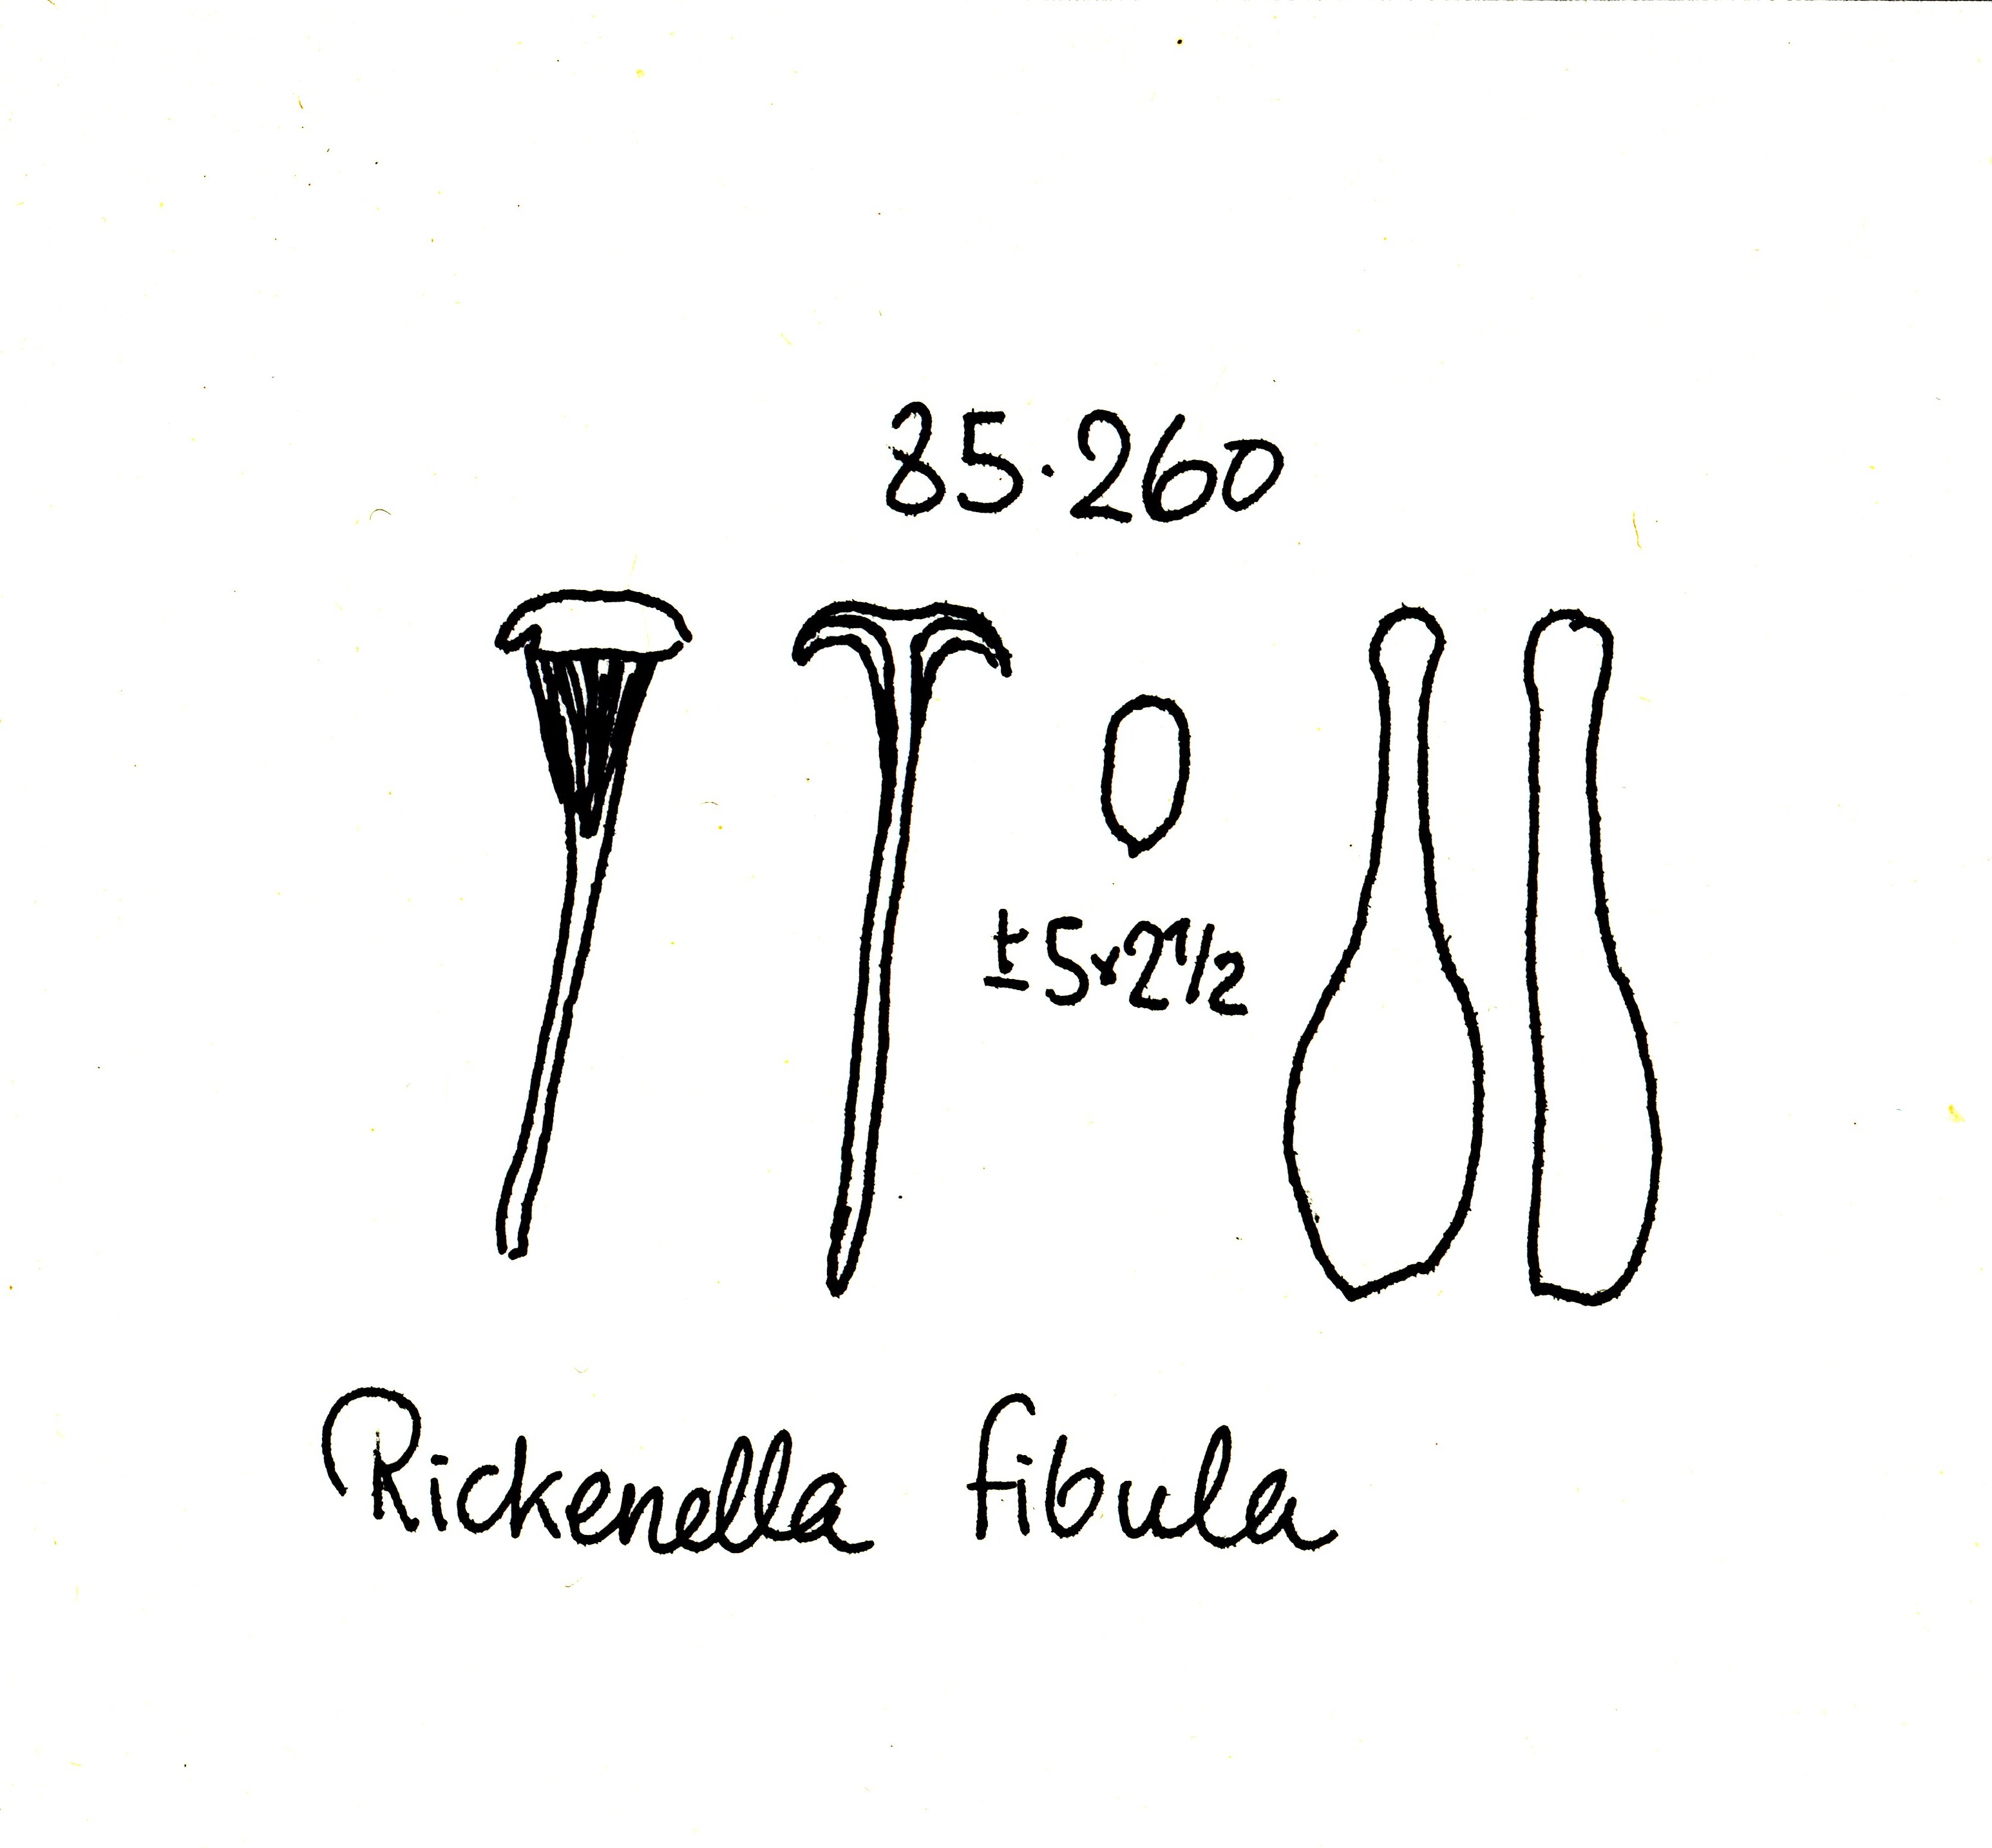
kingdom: Fungi
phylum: Basidiomycota
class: Agaricomycetes
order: Hymenochaetales
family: Rickenellaceae
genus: Rickenella
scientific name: Rickenella fibula
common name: orange mosnavlehat
